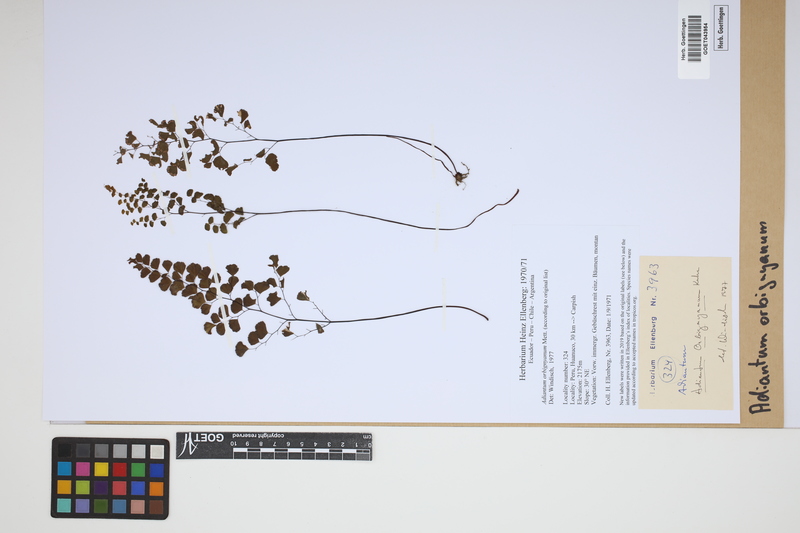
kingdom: Plantae
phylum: Tracheophyta
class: Polypodiopsida
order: Polypodiales
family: Pteridaceae
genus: Adiantum
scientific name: Adiantum orbignyanum
